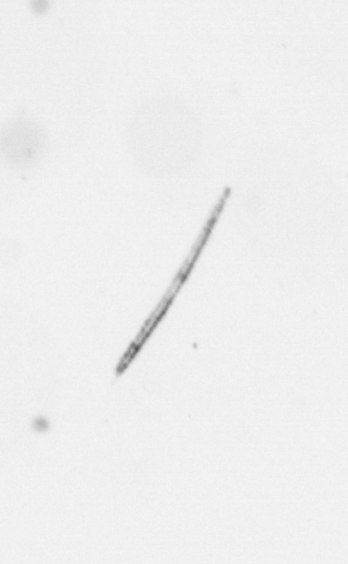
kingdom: Chromista
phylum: Ochrophyta
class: Bacillariophyceae
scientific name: Bacillariophyceae
